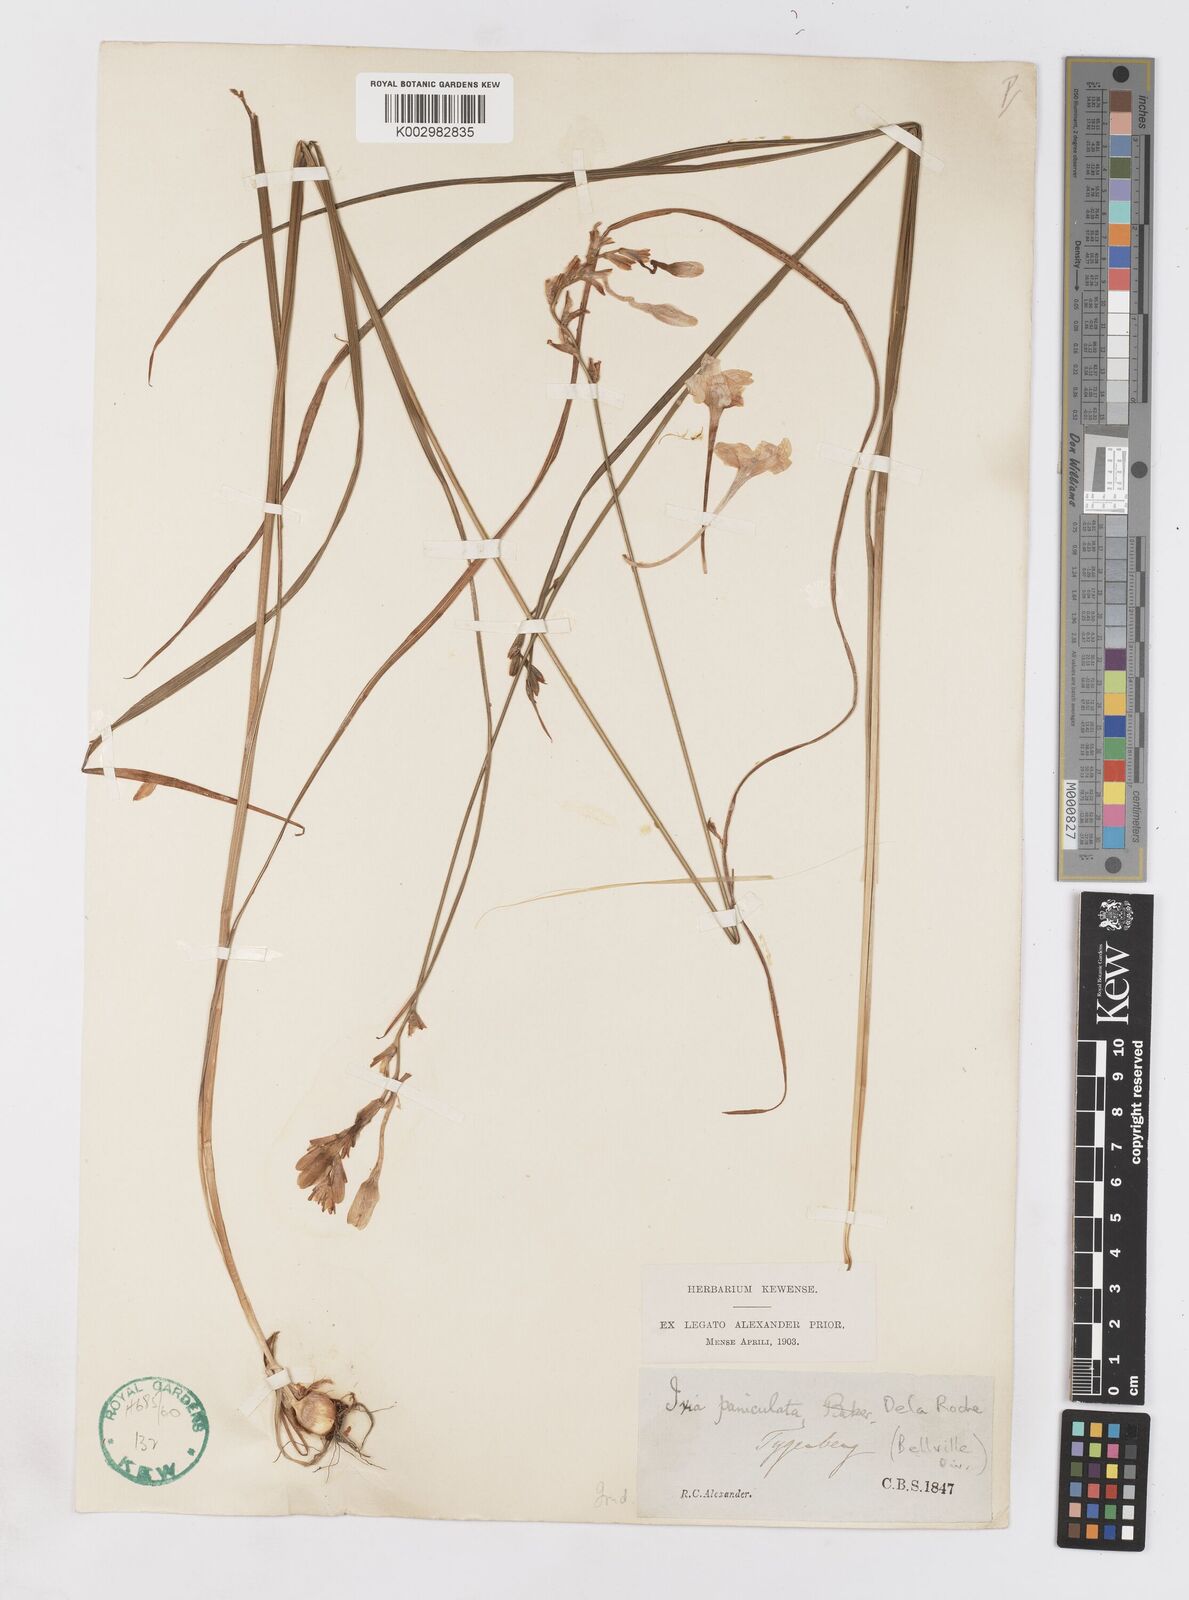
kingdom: Plantae
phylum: Tracheophyta
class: Liliopsida
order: Asparagales
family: Iridaceae
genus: Ixia
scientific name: Ixia paniculata
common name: Tubular corn-lily
